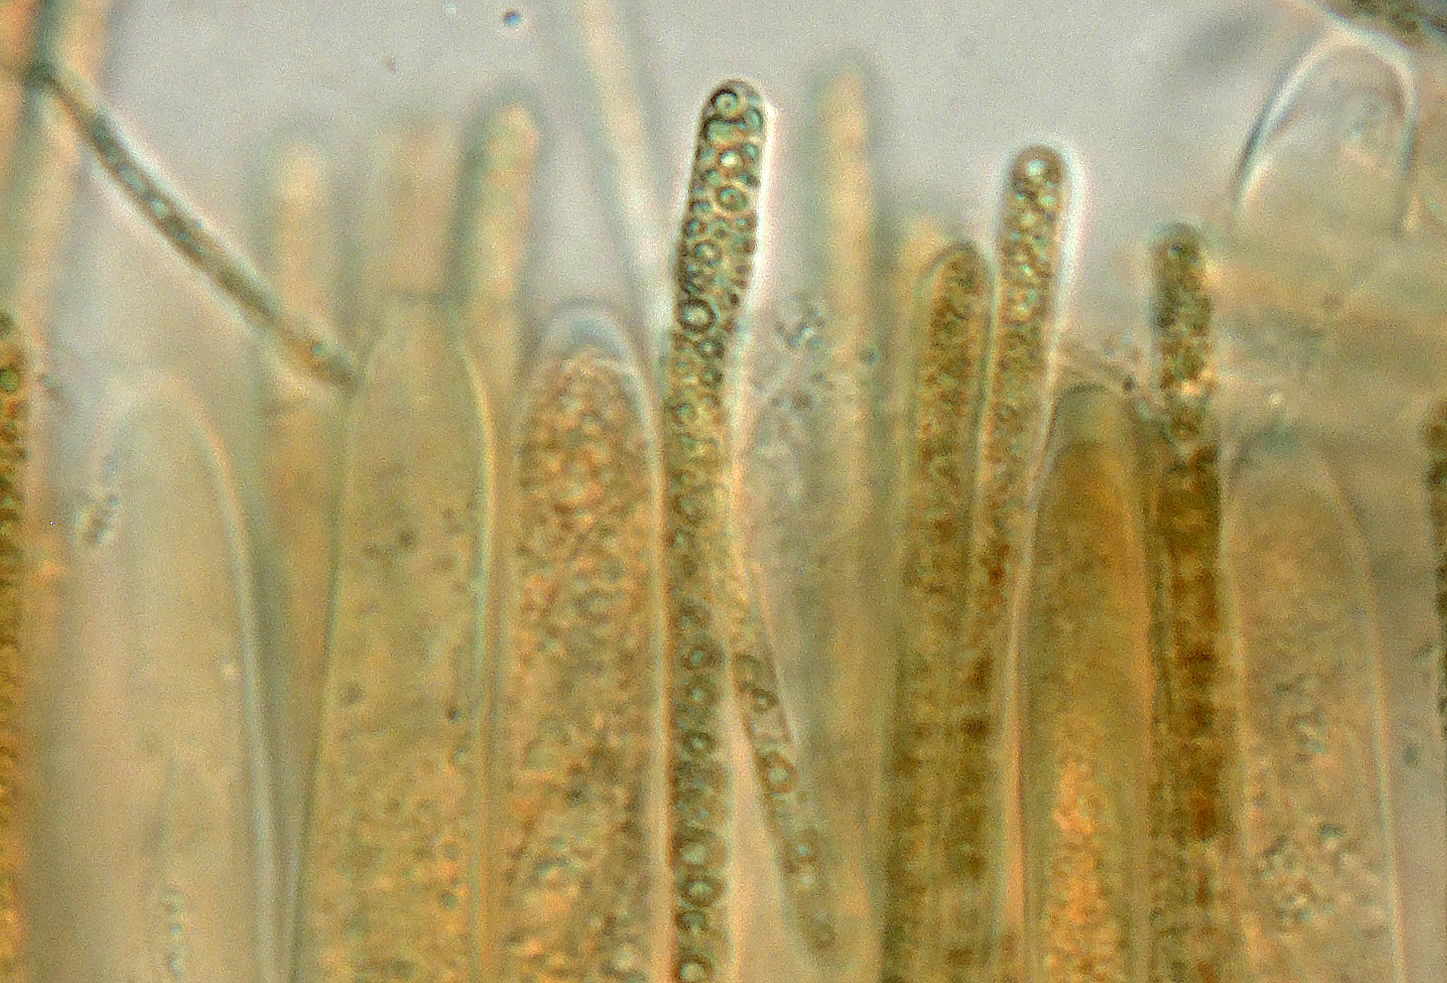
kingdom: Fungi
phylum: Ascomycota
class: Leotiomycetes
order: Helotiales
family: Helotiaceae
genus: Bryoscyphus
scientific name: Bryoscyphus
